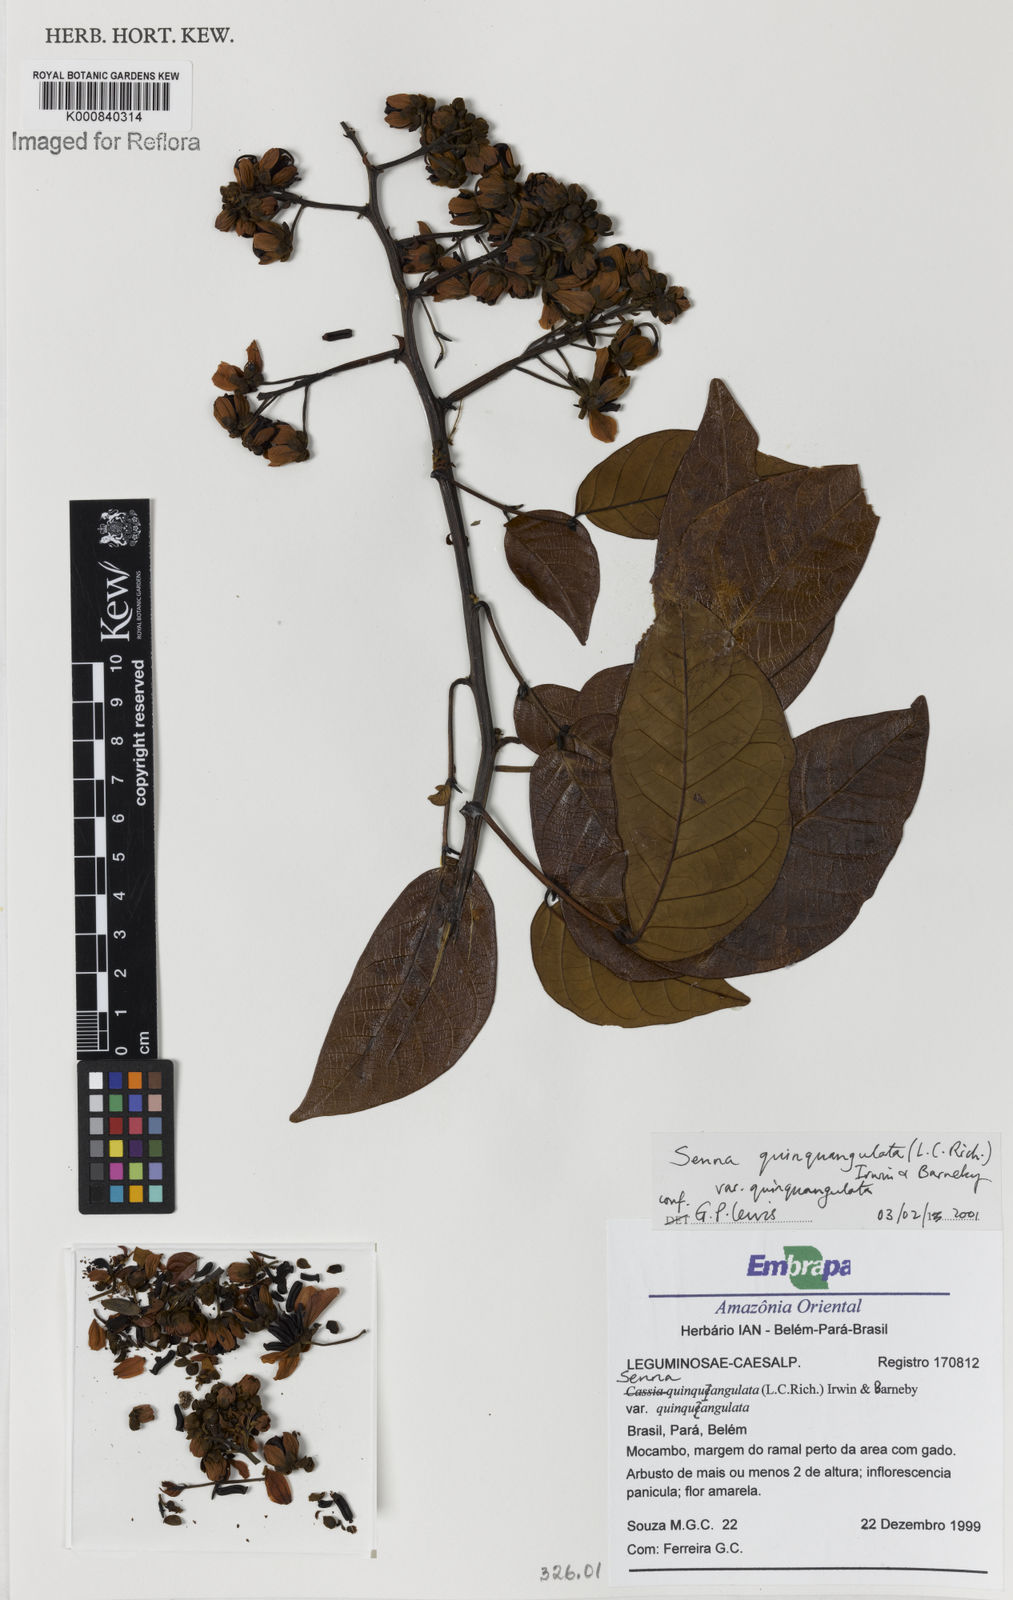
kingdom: Plantae
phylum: Tracheophyta
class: Magnoliopsida
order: Fabales
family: Fabaceae
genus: Senna
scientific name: Senna
